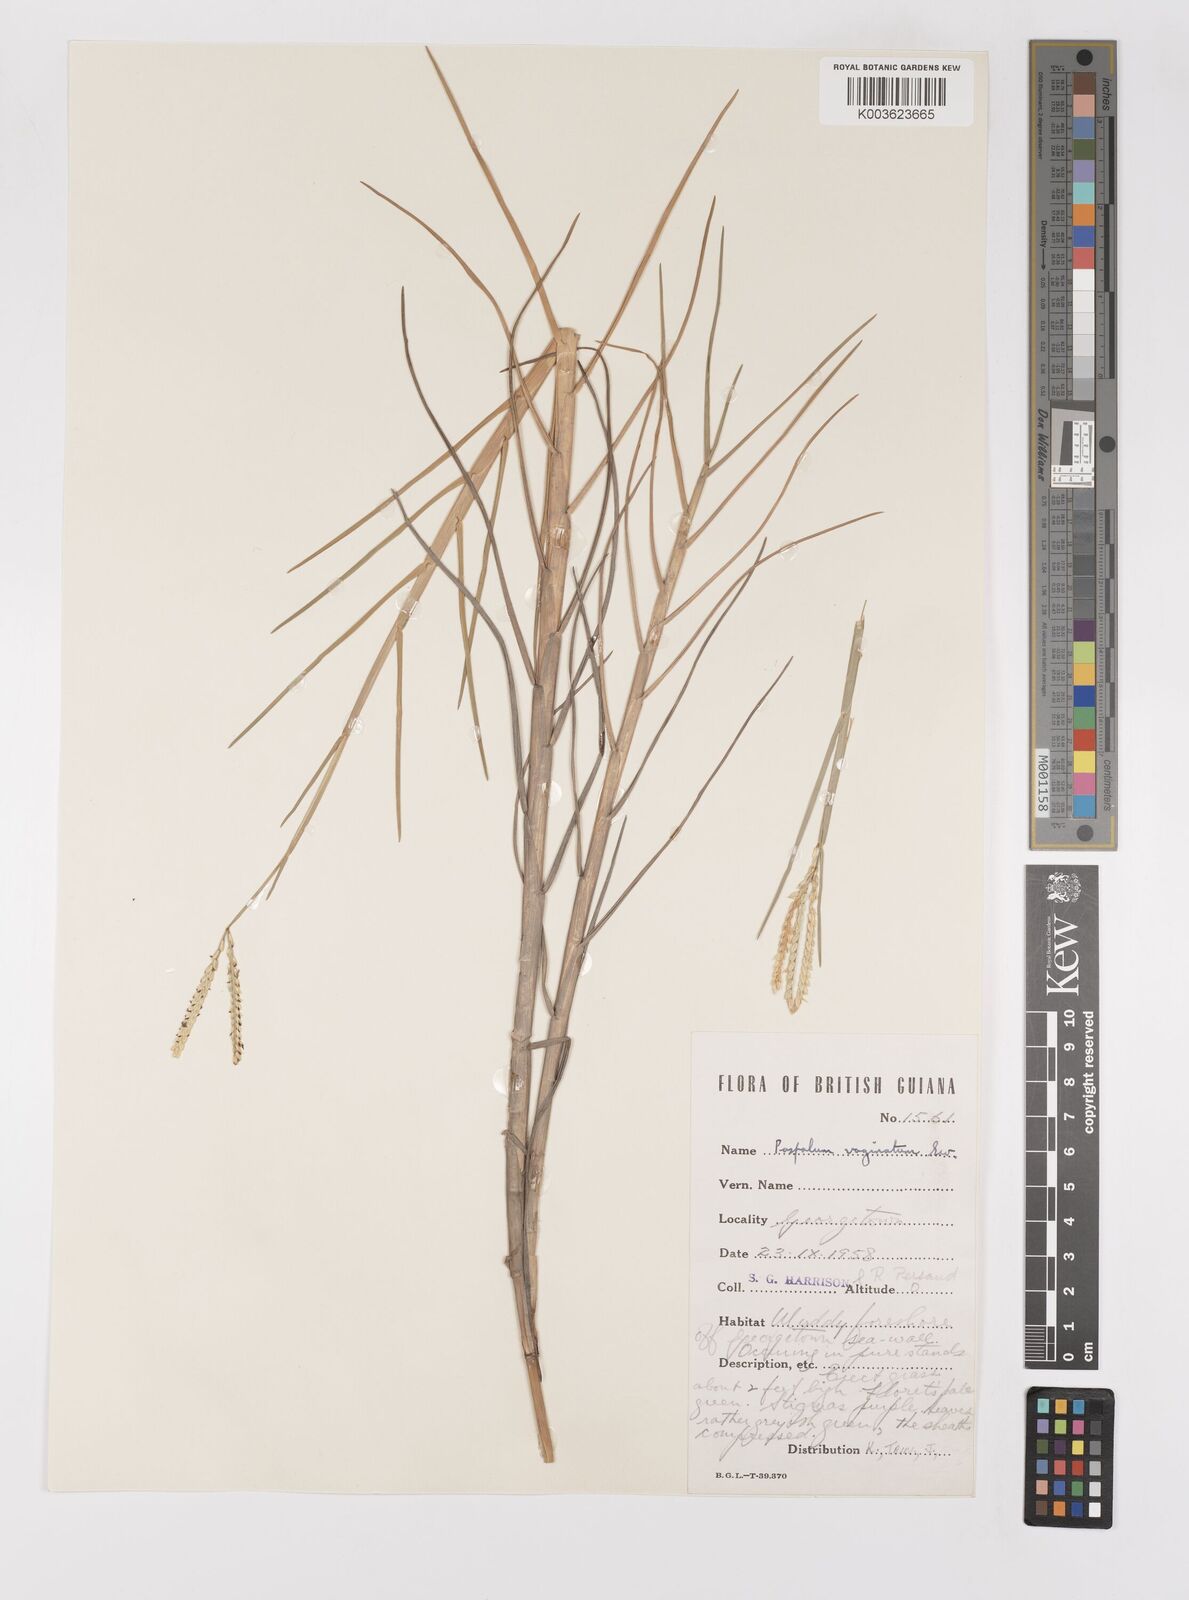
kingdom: Plantae
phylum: Tracheophyta
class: Liliopsida
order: Poales
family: Poaceae
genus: Paspalum
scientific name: Paspalum vaginatum
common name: Seashore paspalum
